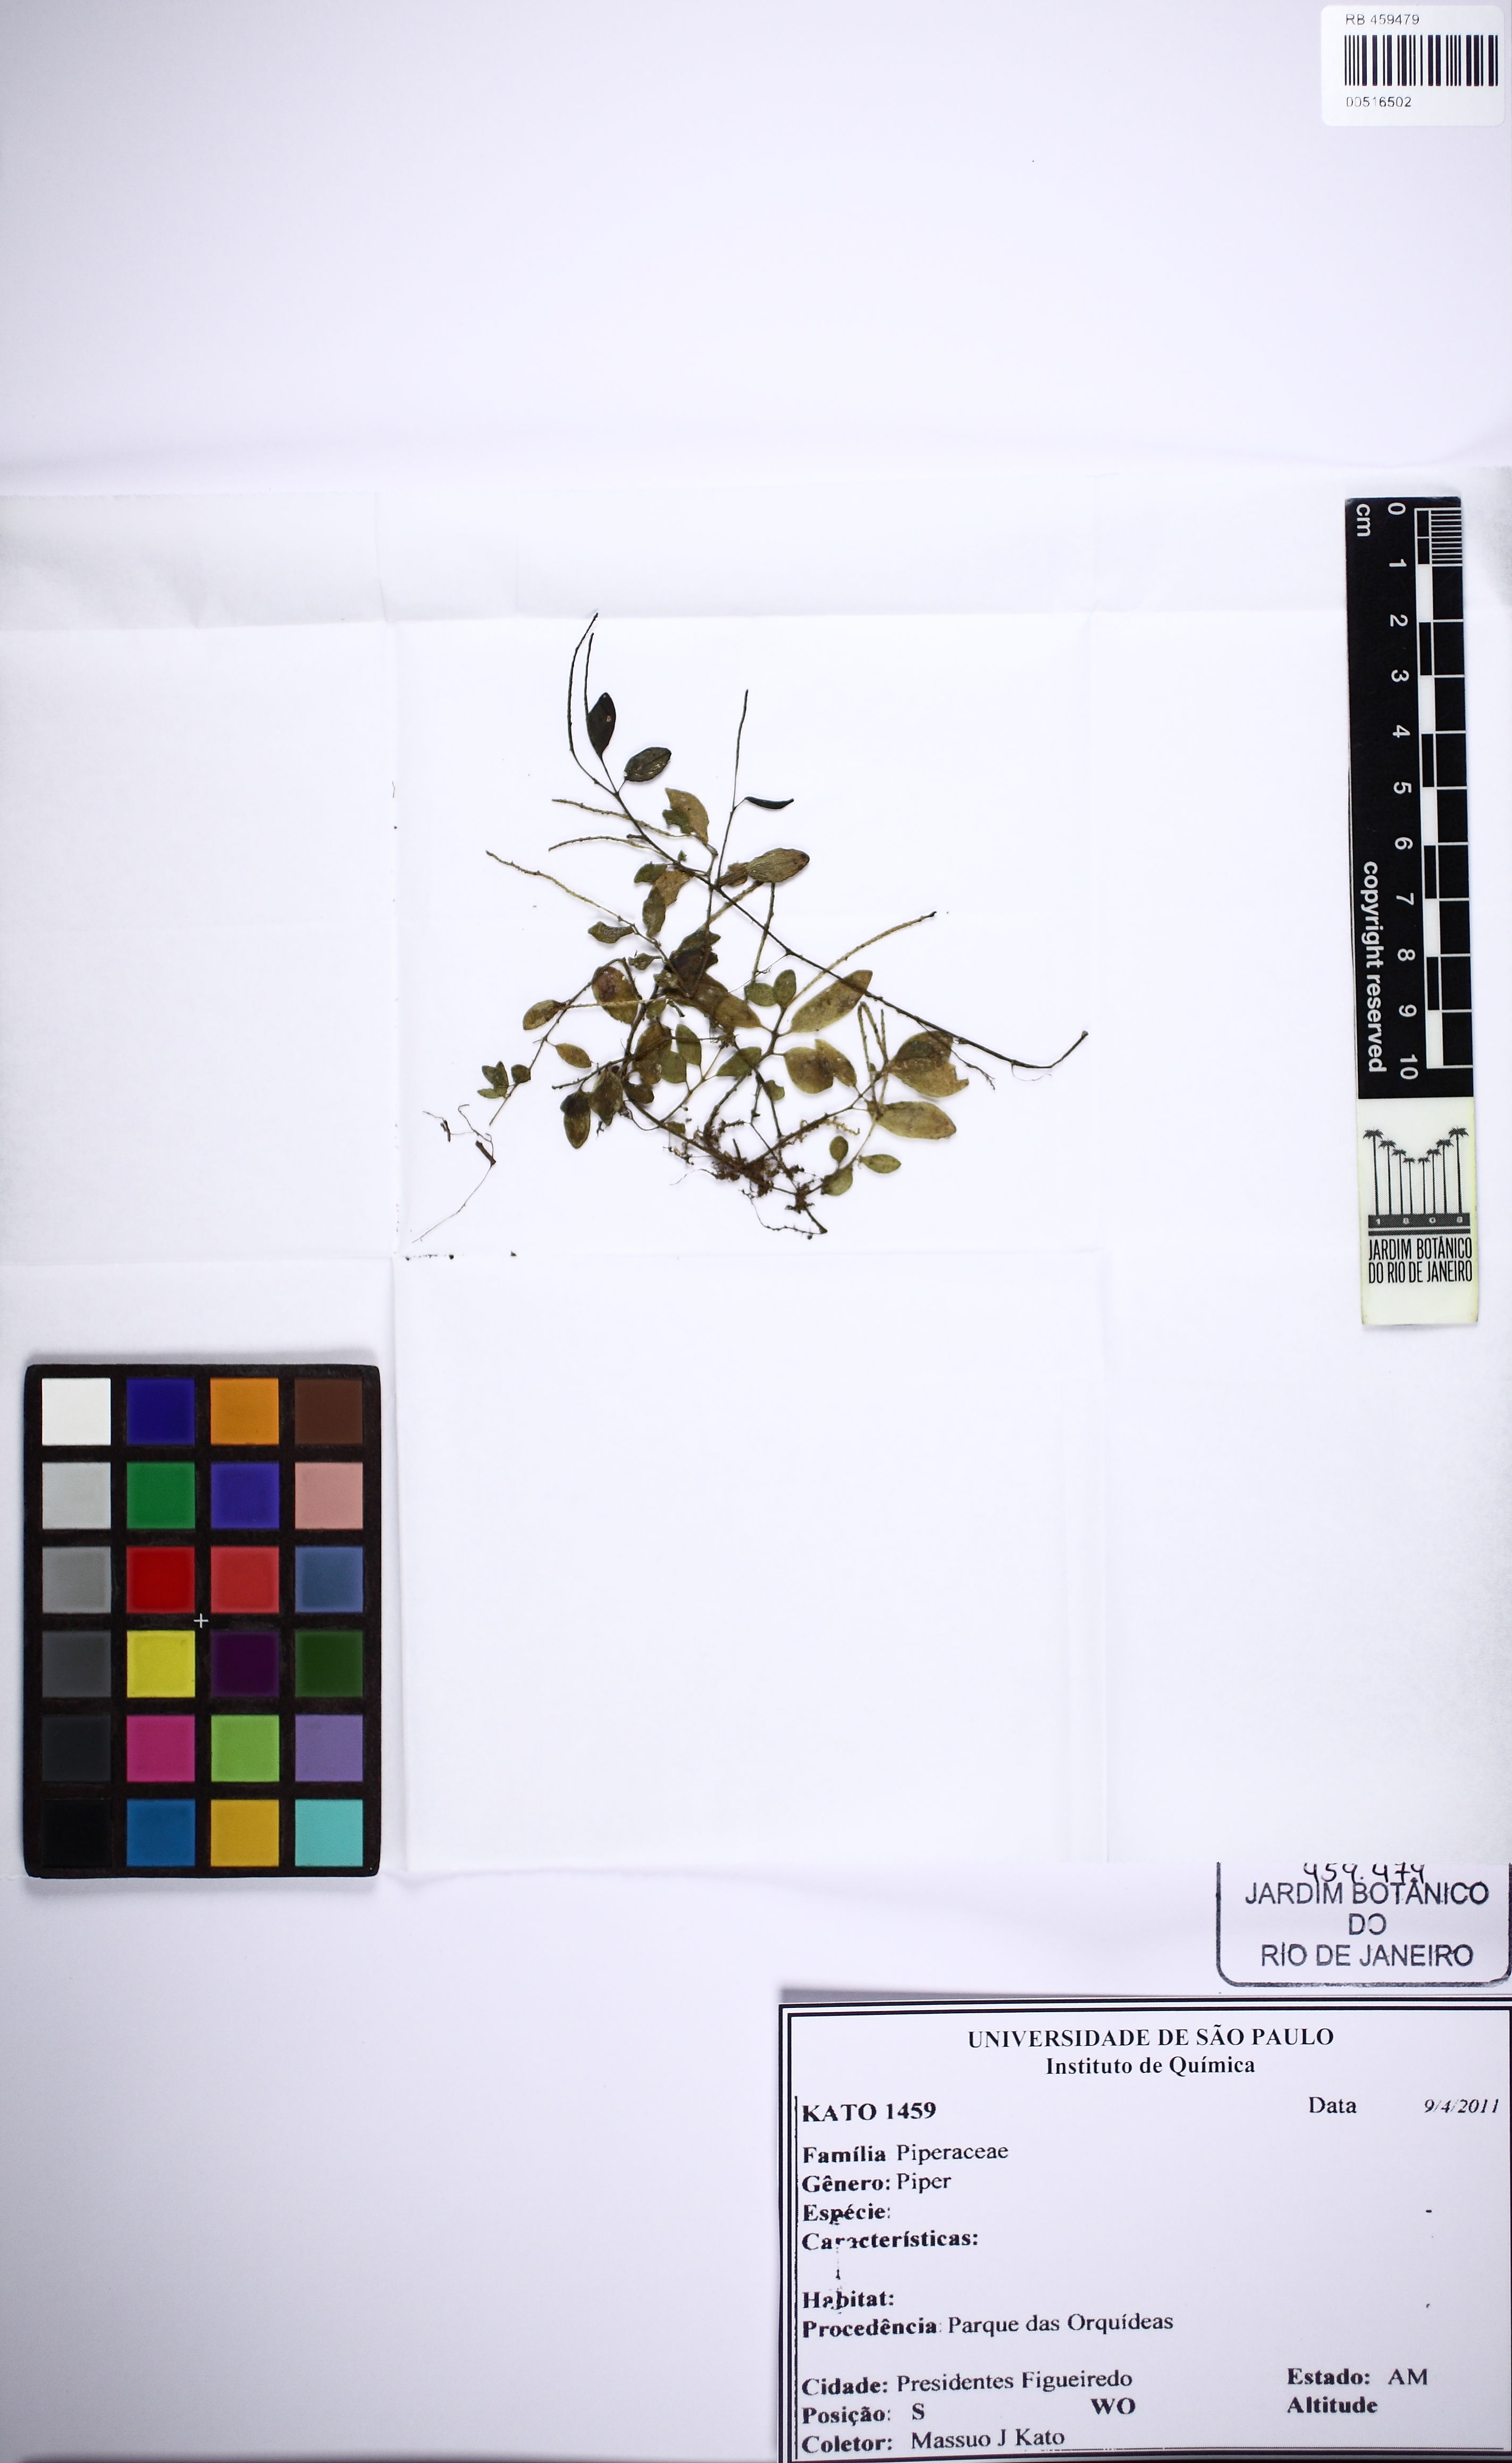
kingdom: Plantae
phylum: Tracheophyta
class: Magnoliopsida
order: Piperales
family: Piperaceae
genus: Piper
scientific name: Piper
